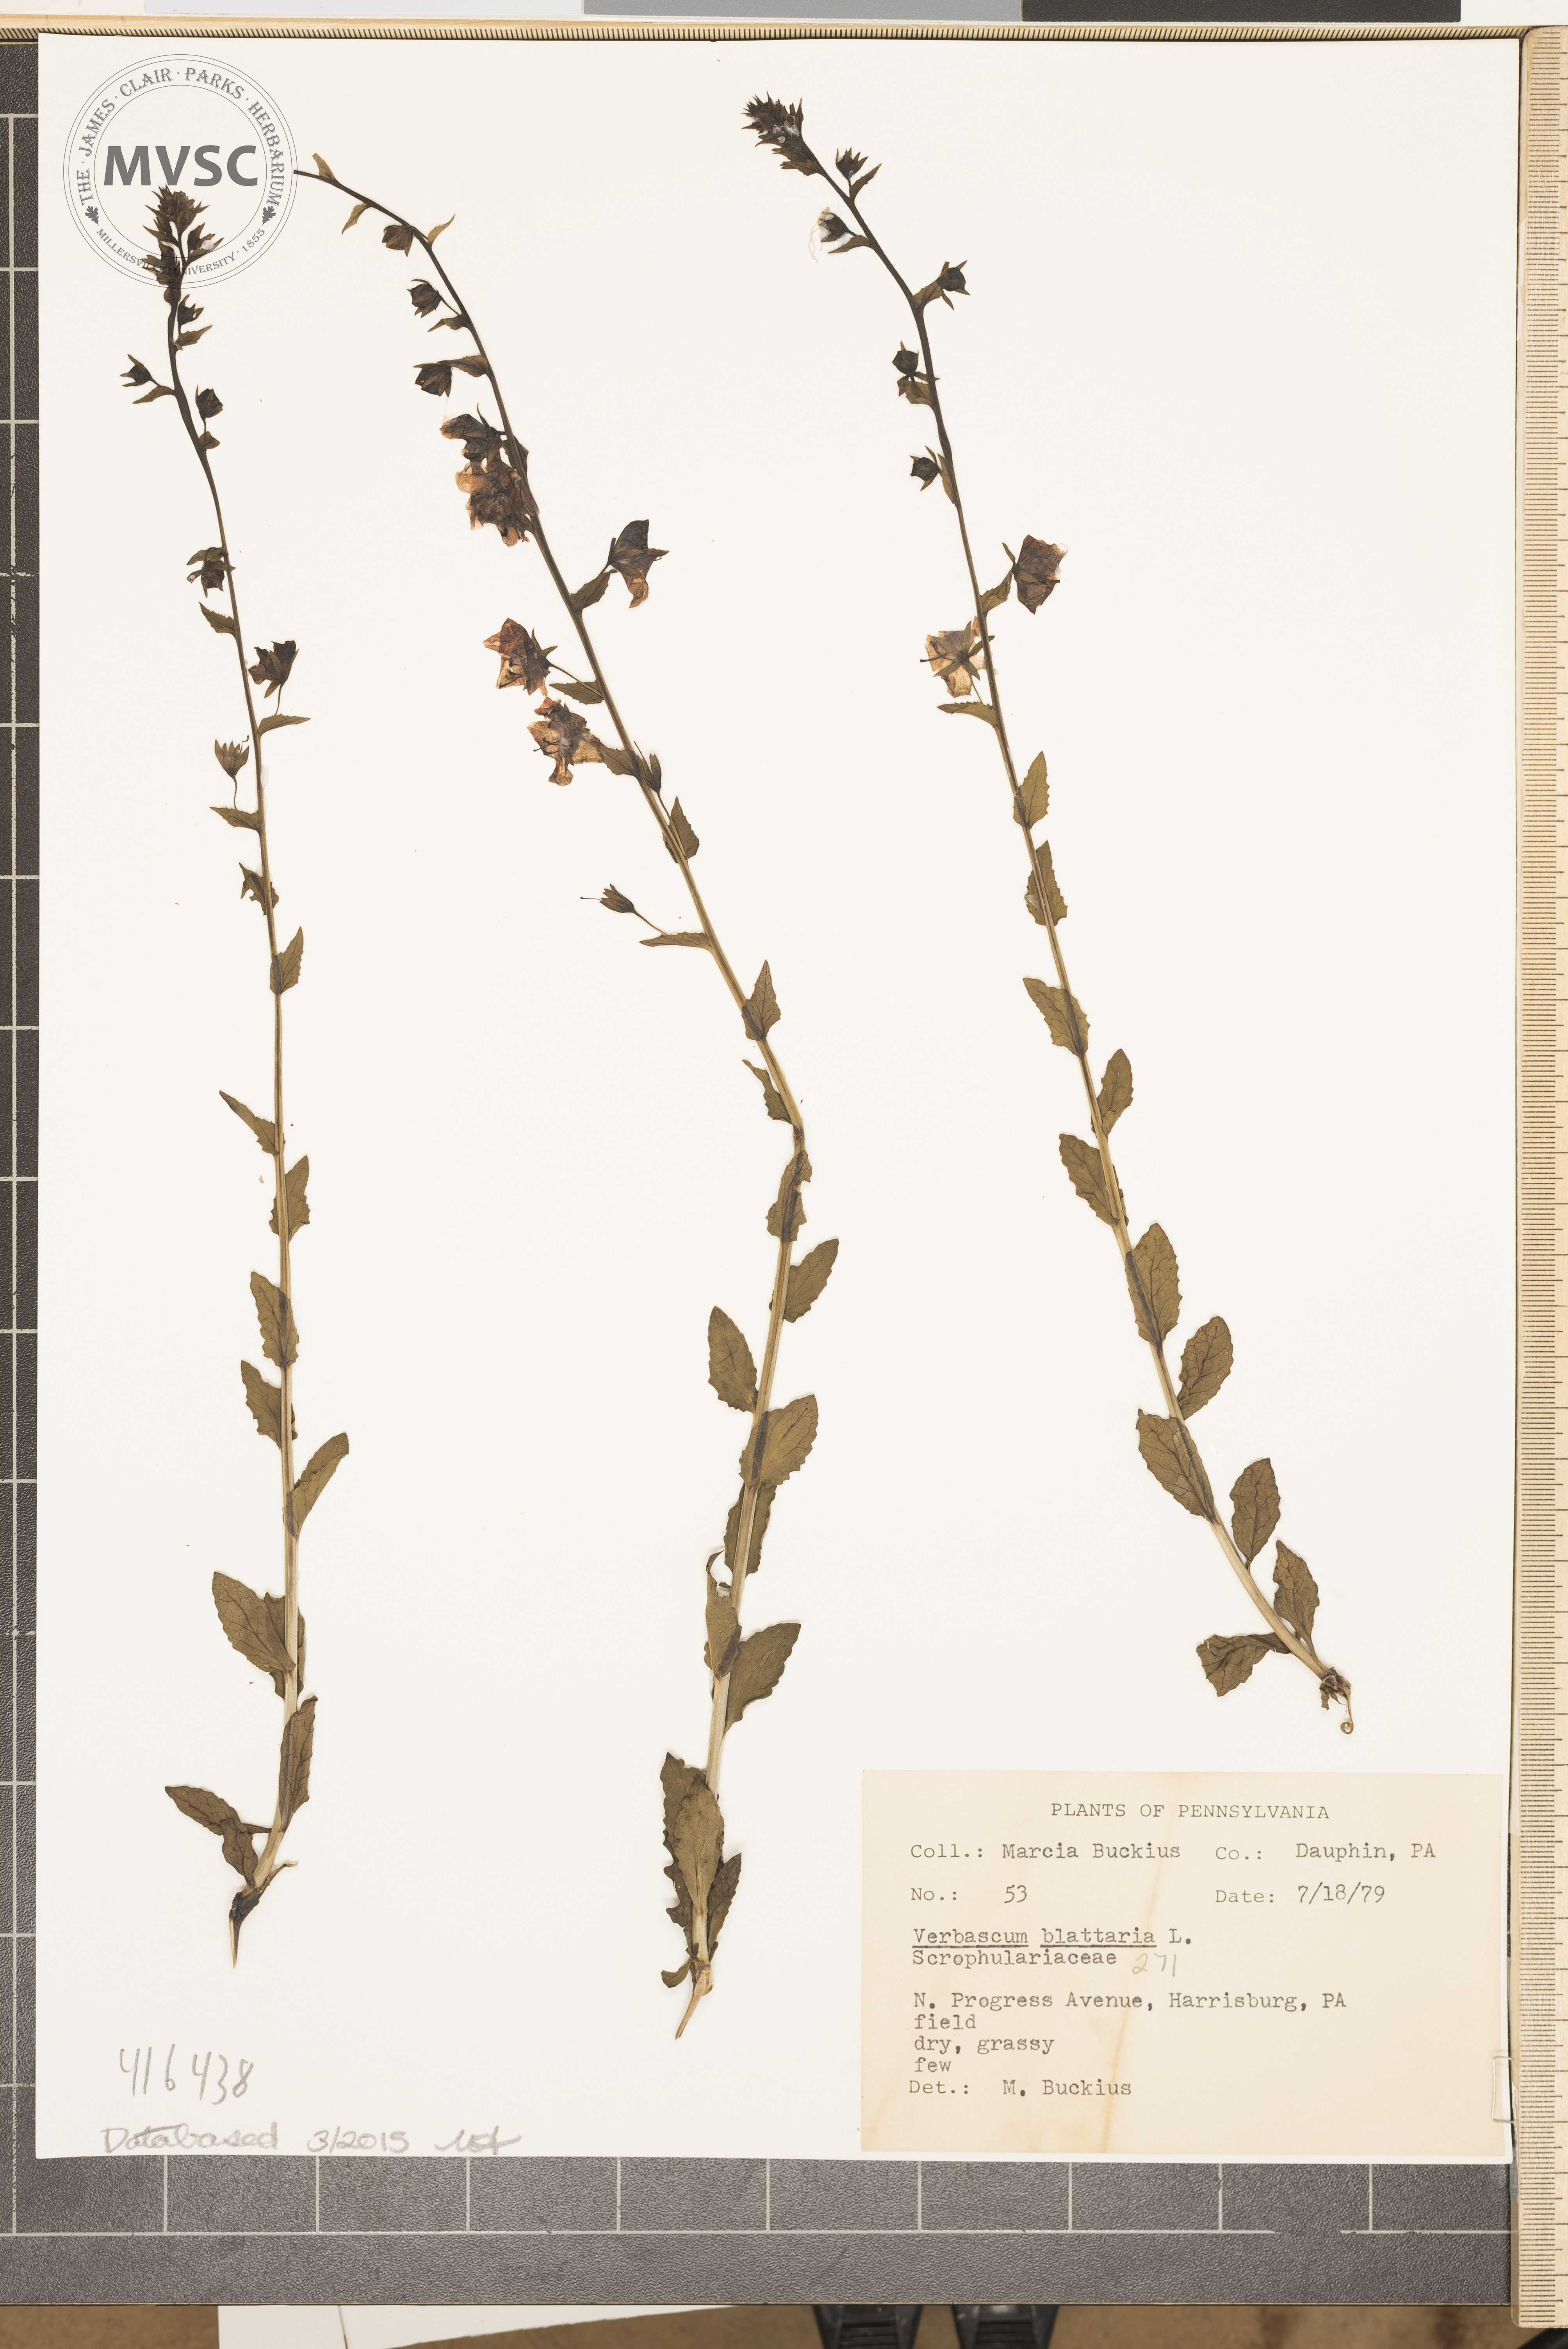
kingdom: Plantae
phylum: Tracheophyta
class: Magnoliopsida
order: Lamiales
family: Scrophulariaceae
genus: Verbascum
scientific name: Verbascum blattaria
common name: Moth mullein
